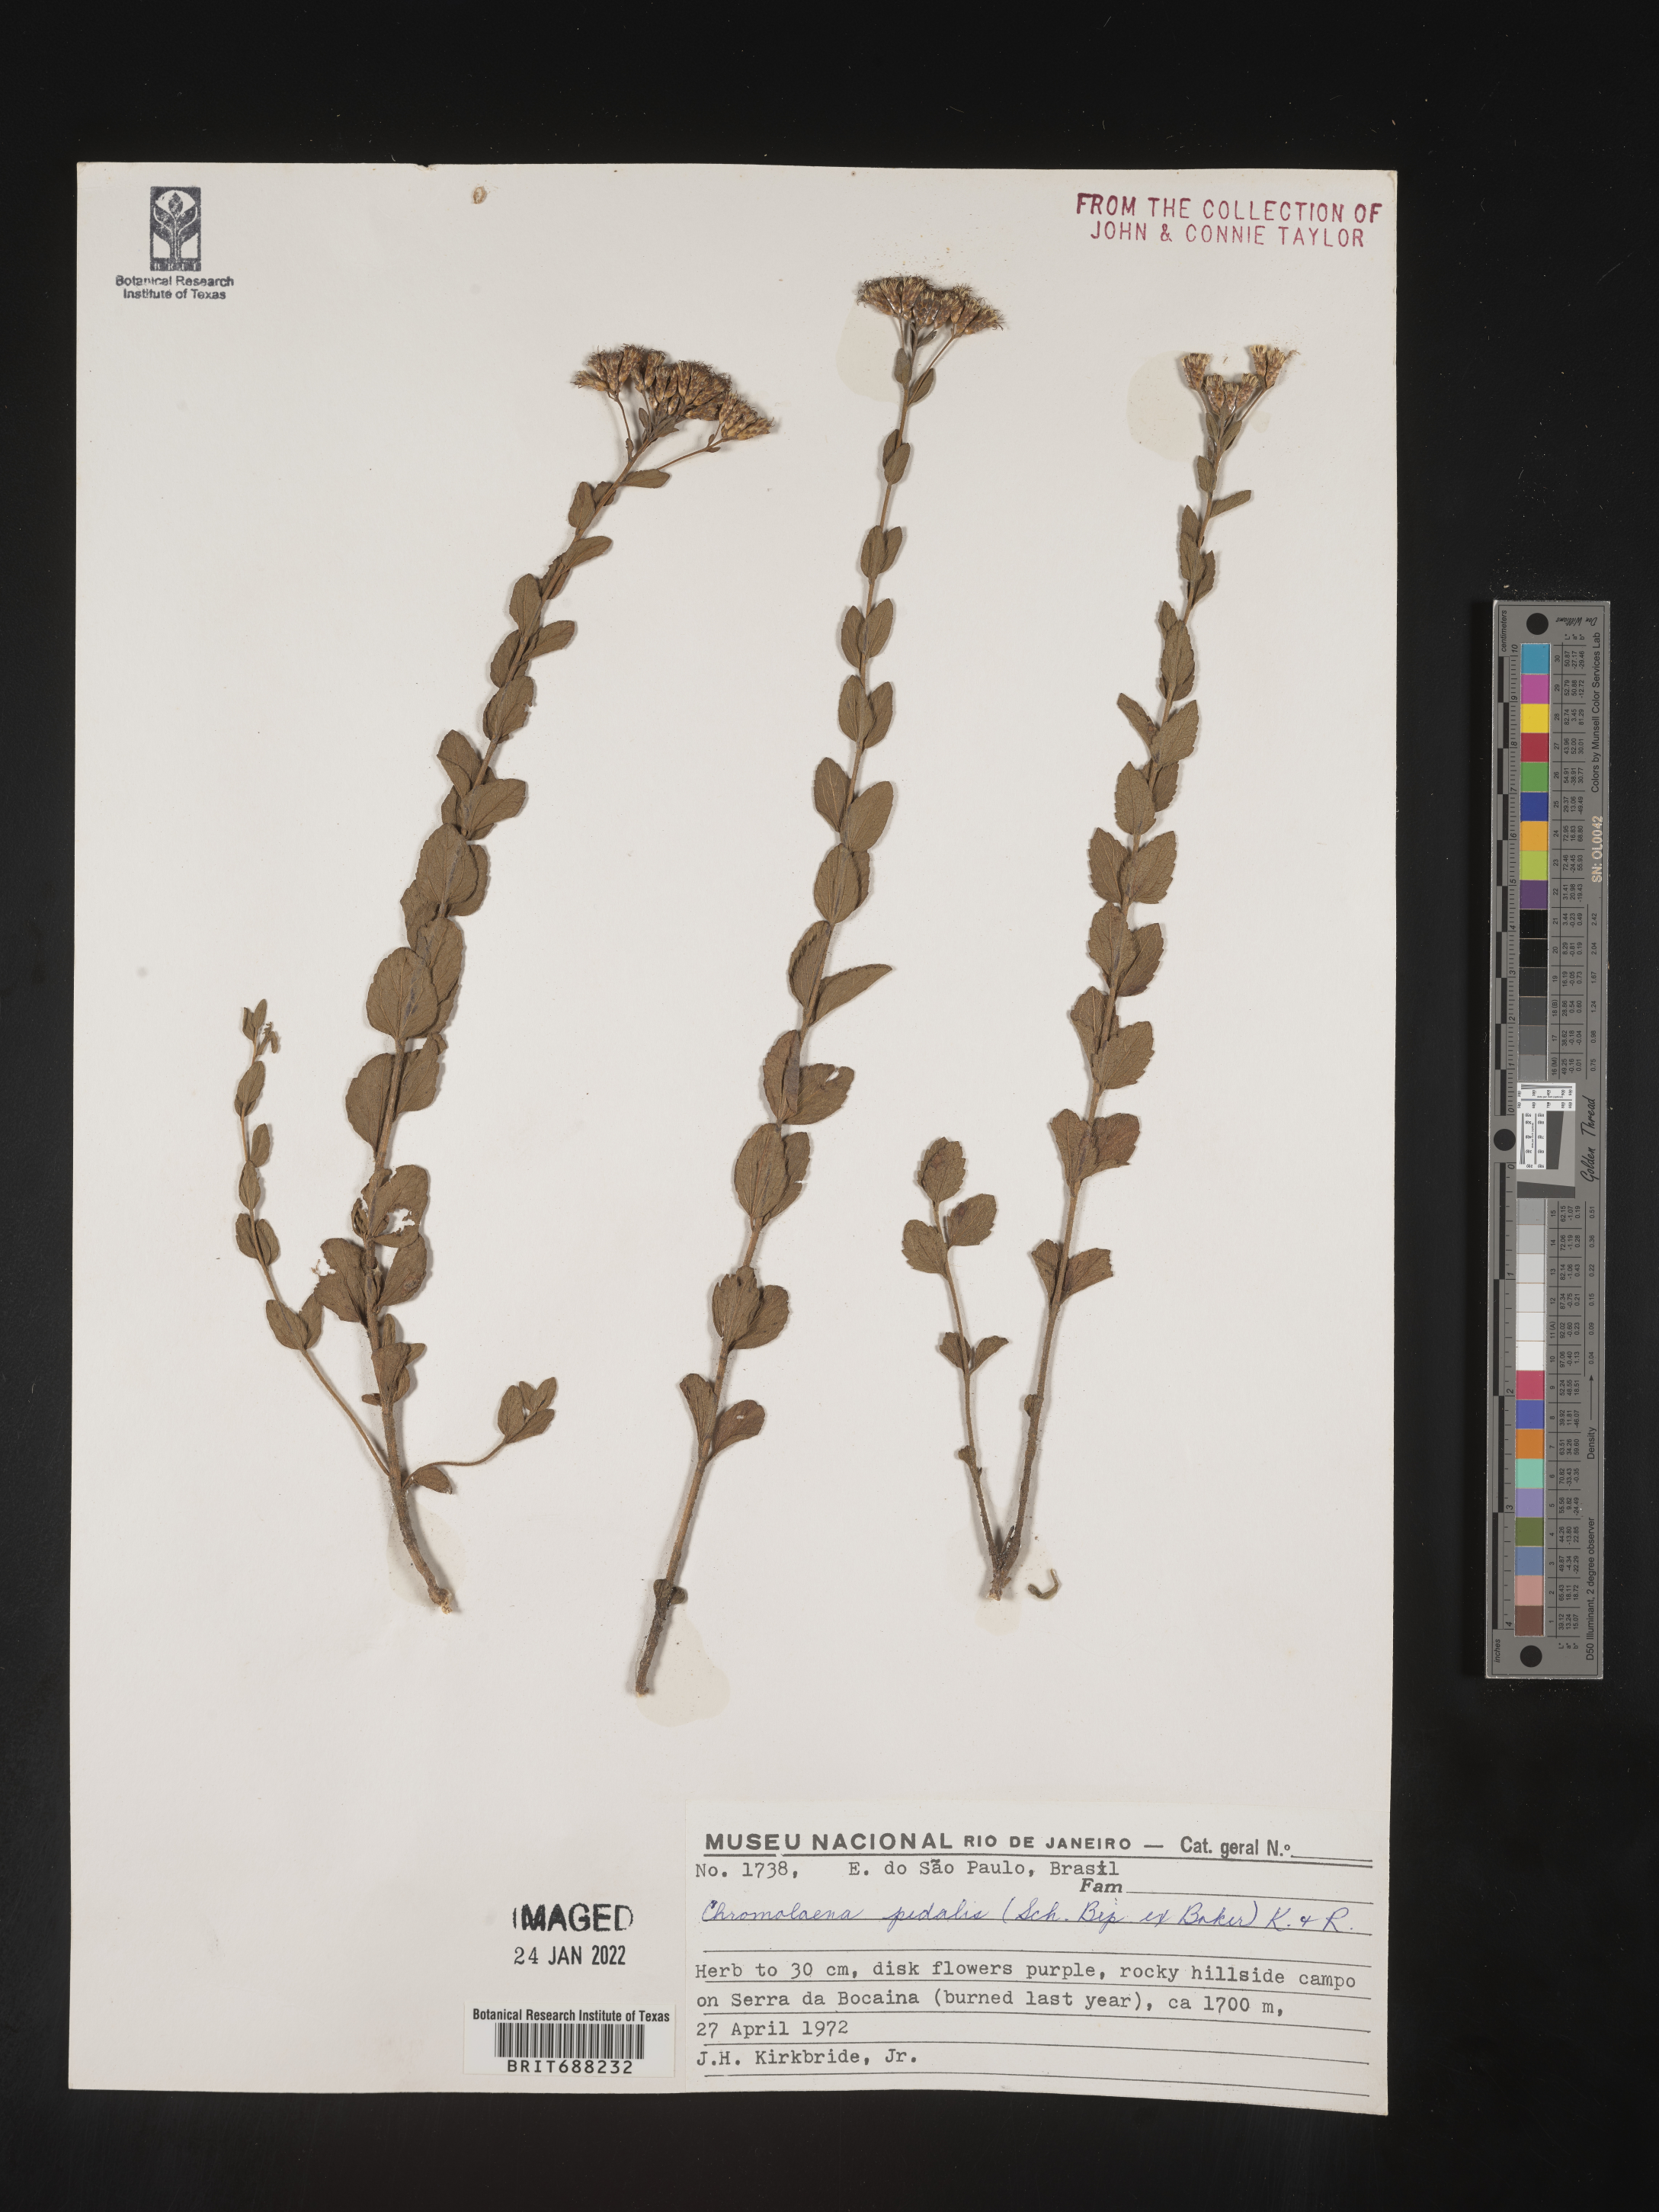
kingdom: Plantae
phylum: Tracheophyta
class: Magnoliopsida
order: Asterales
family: Asteraceae
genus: Chromolaena
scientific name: Chromolaena
